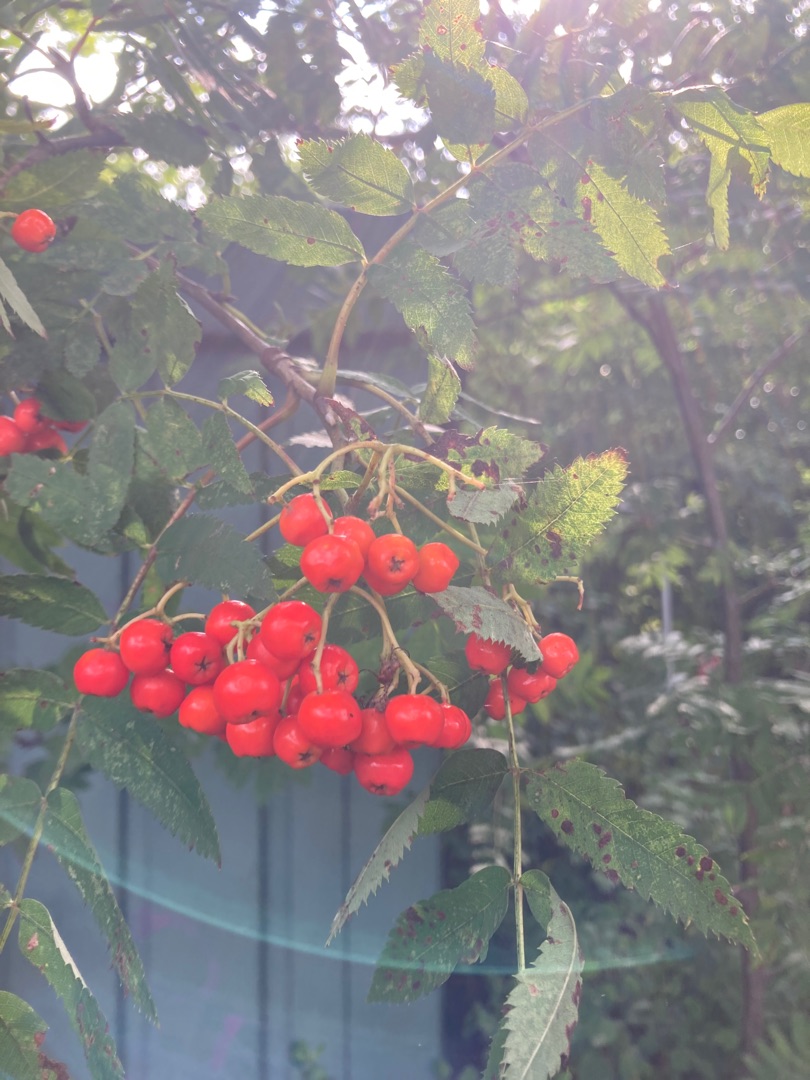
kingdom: Plantae
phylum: Tracheophyta
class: Magnoliopsida
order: Rosales
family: Rosaceae
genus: Sorbus
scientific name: Sorbus aucuparia
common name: Almindelig røn
